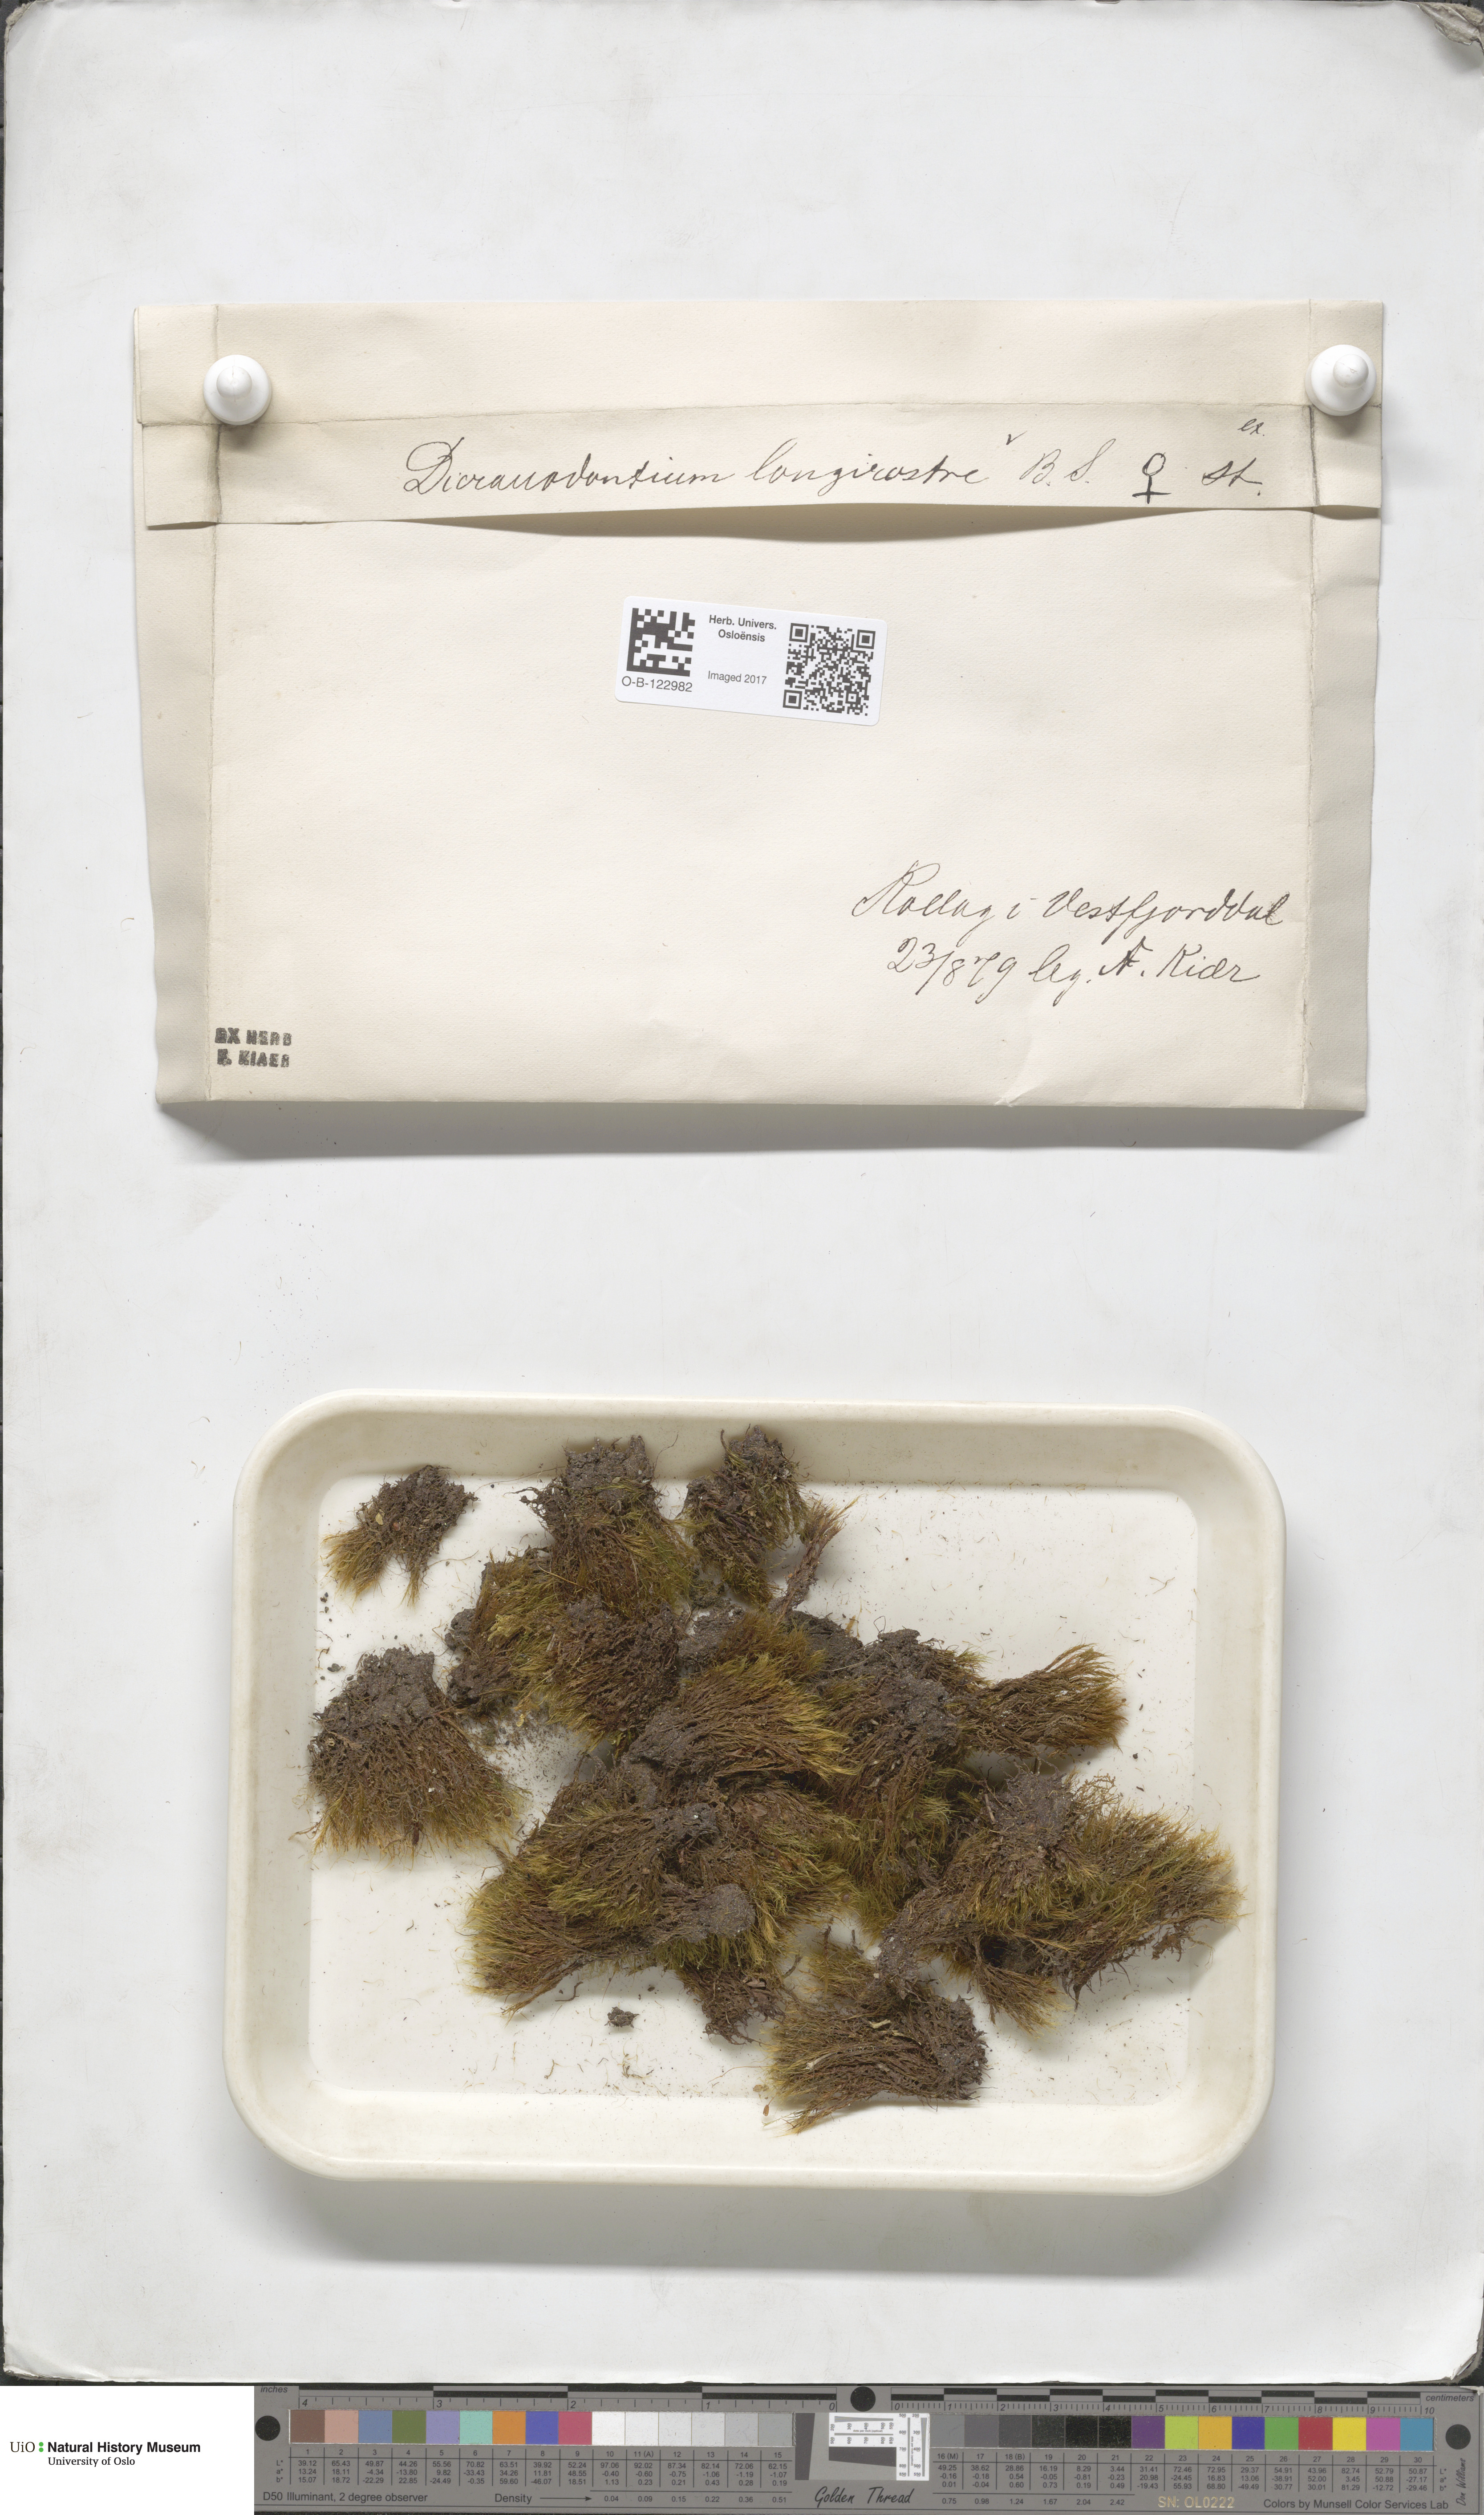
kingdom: Plantae
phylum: Bryophyta
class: Bryopsida
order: Dicranales
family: Leucobryaceae
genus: Dicranodontium
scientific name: Dicranodontium denudatum
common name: Beaked bow moss
